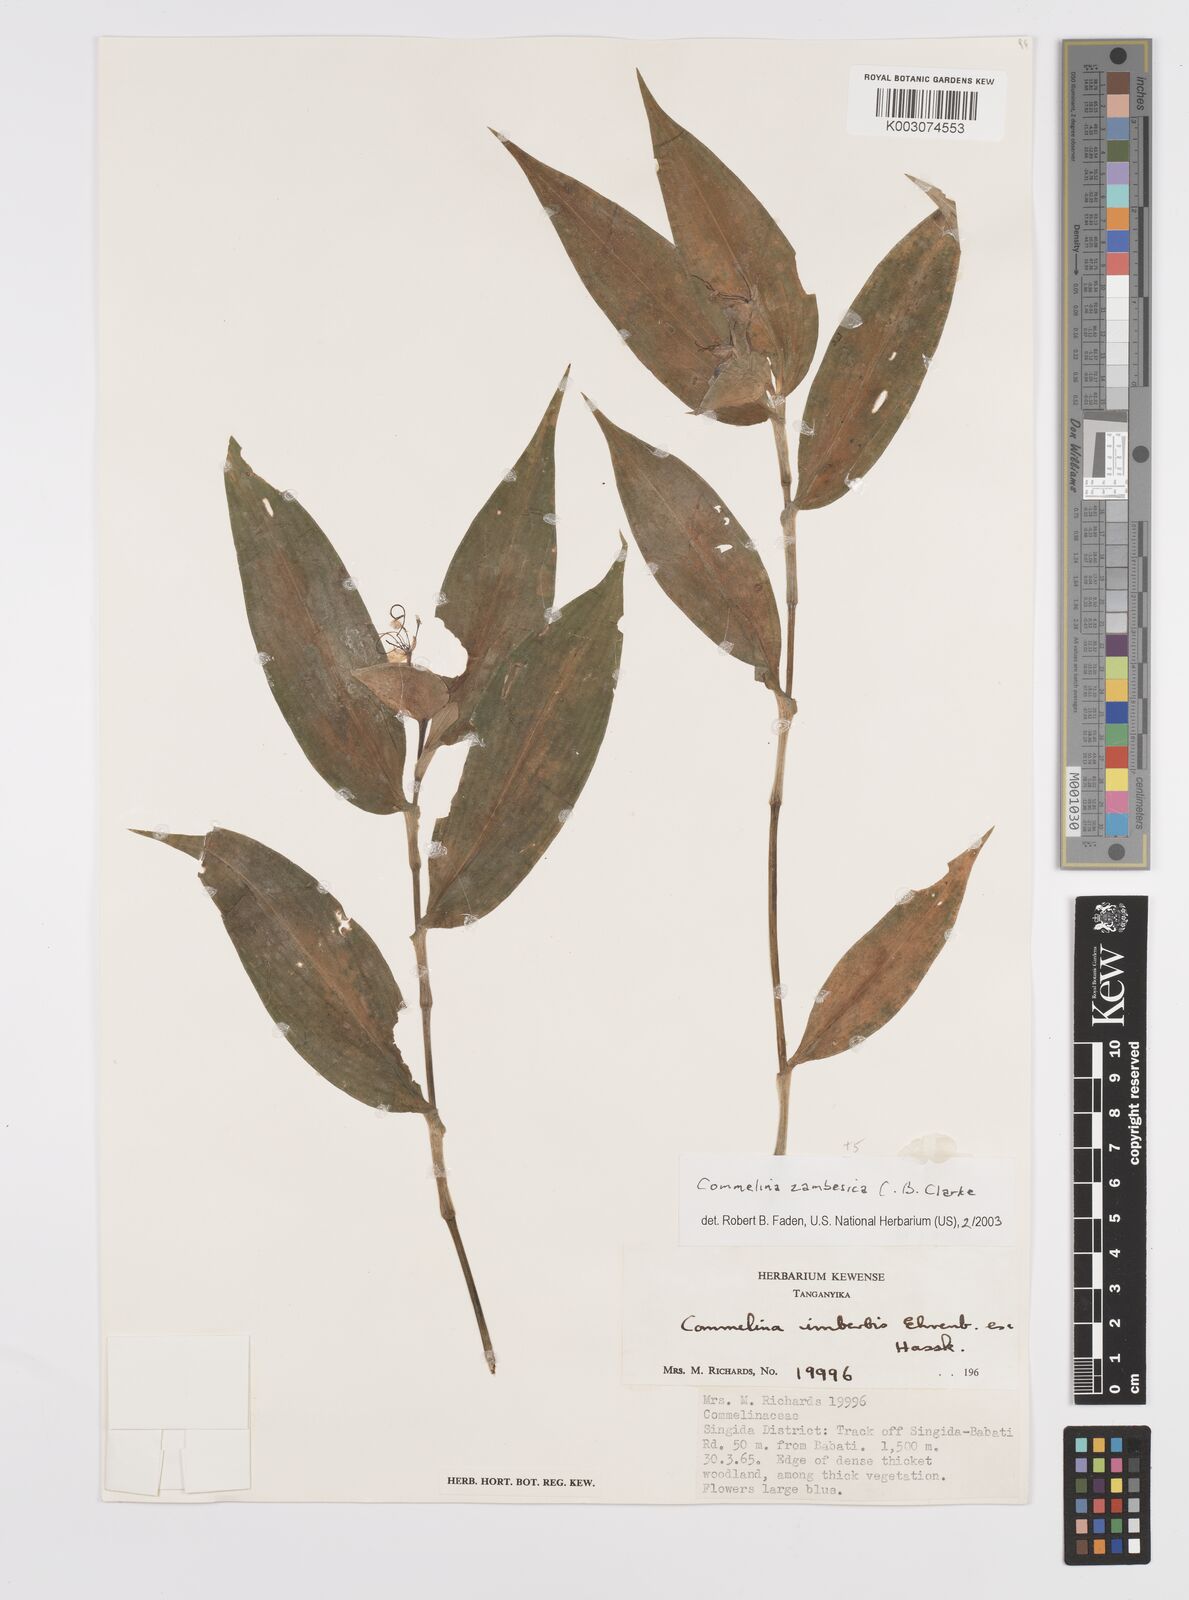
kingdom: Plantae
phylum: Tracheophyta
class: Liliopsida
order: Commelinales
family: Commelinaceae
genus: Commelina
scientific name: Commelina zambesica
